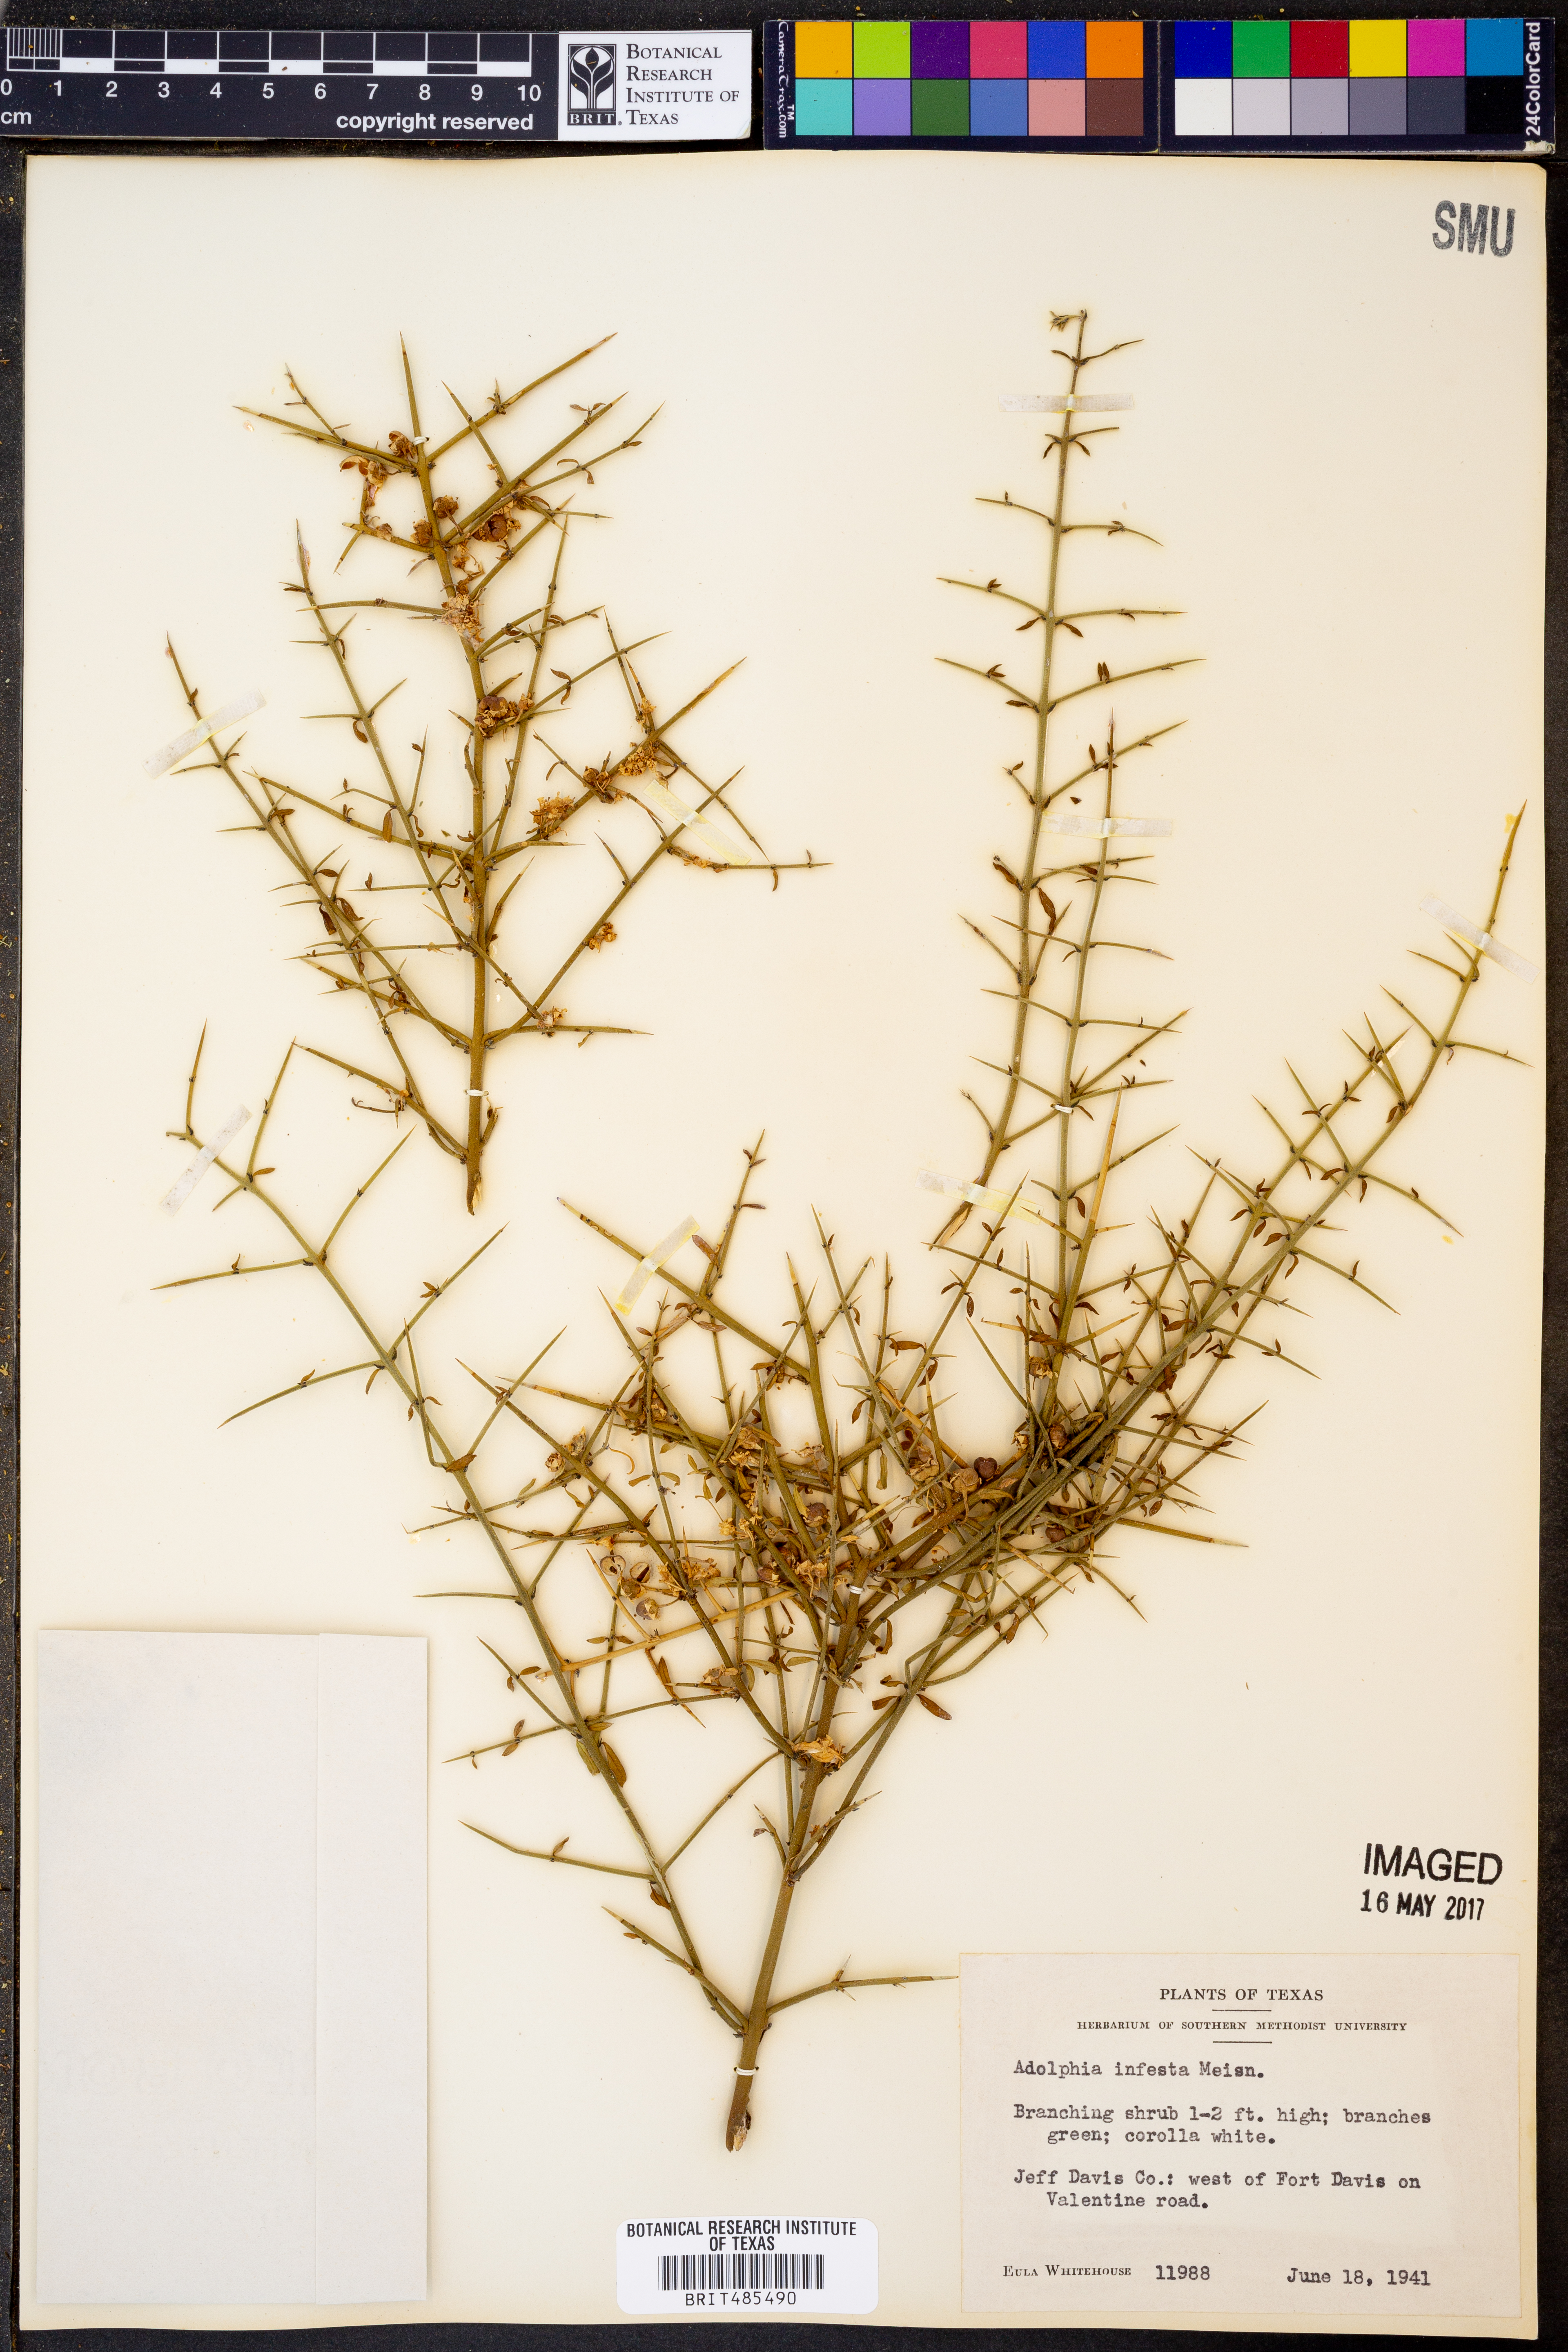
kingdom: Plantae
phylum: Tracheophyta
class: Magnoliopsida
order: Rosales
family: Rhamnaceae
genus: Adolphia
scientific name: Adolphia infesta
